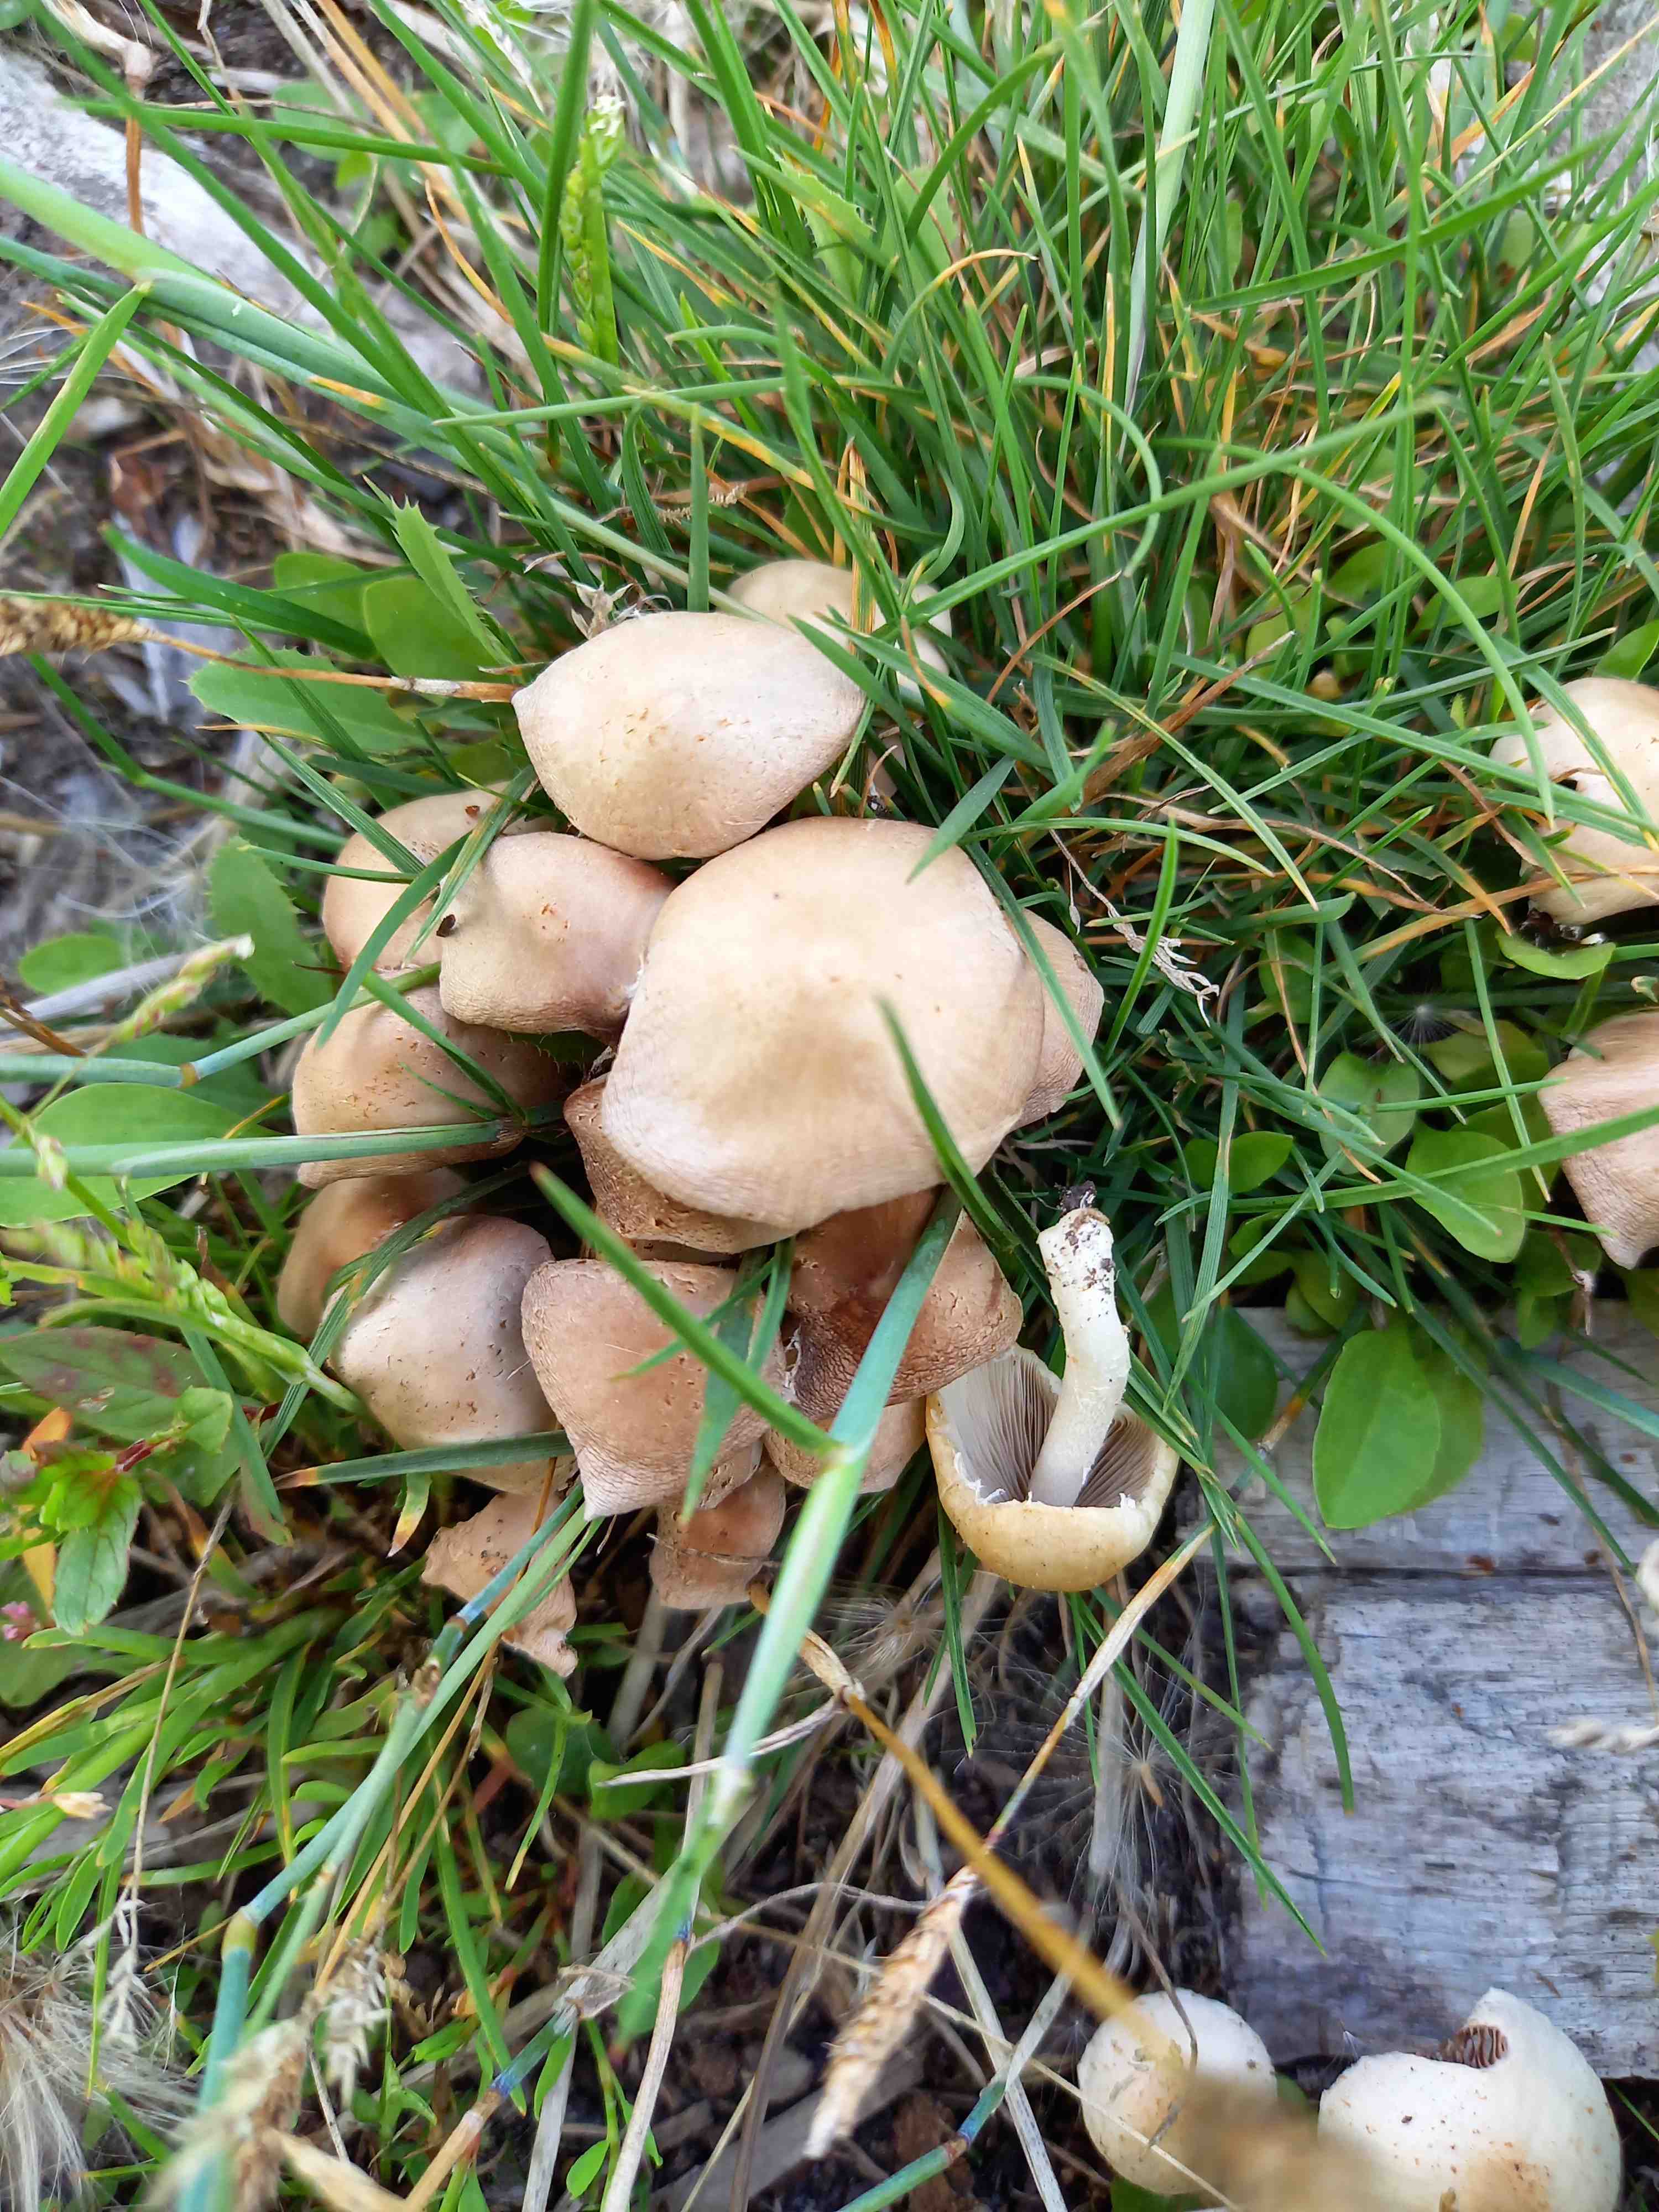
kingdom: Fungi
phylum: Basidiomycota
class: Agaricomycetes
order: Agaricales
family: Psathyrellaceae
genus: Candolleomyces
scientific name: Candolleomyces candolleanus
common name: Candolles mørkhat
